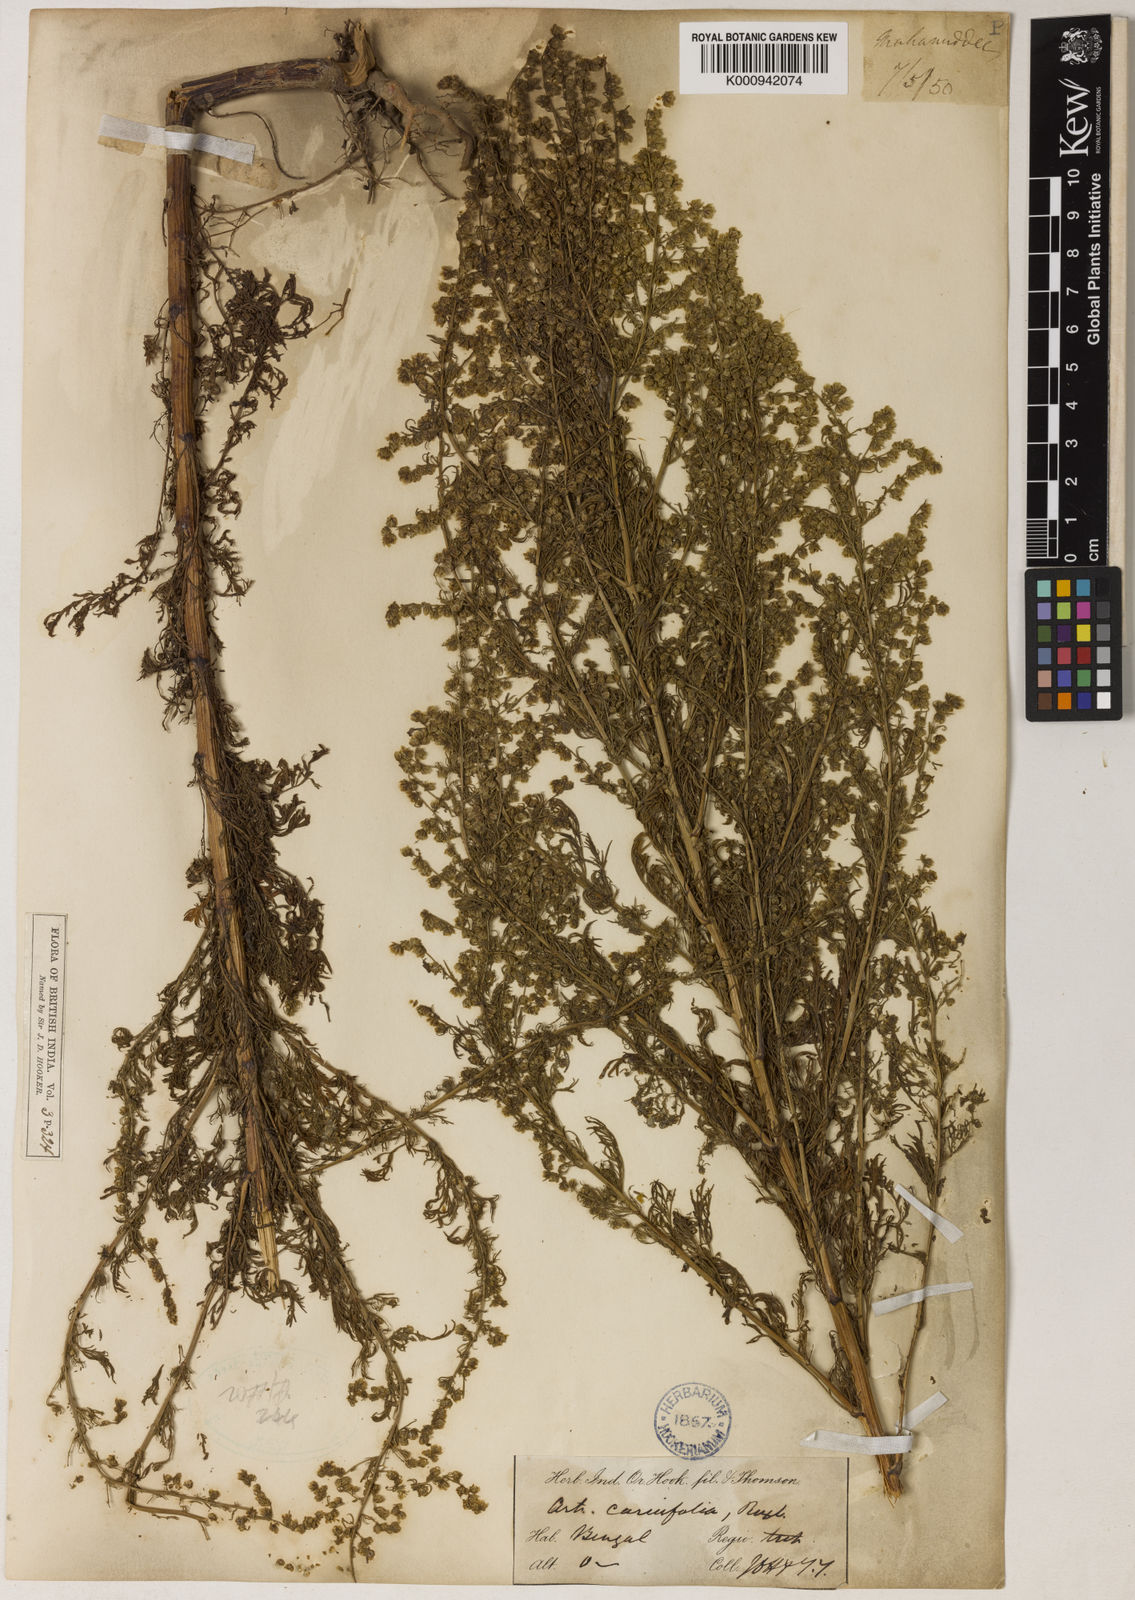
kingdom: Plantae
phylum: Tracheophyta
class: Magnoliopsida
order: Asterales
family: Asteraceae
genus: Artemisia
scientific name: Artemisia
